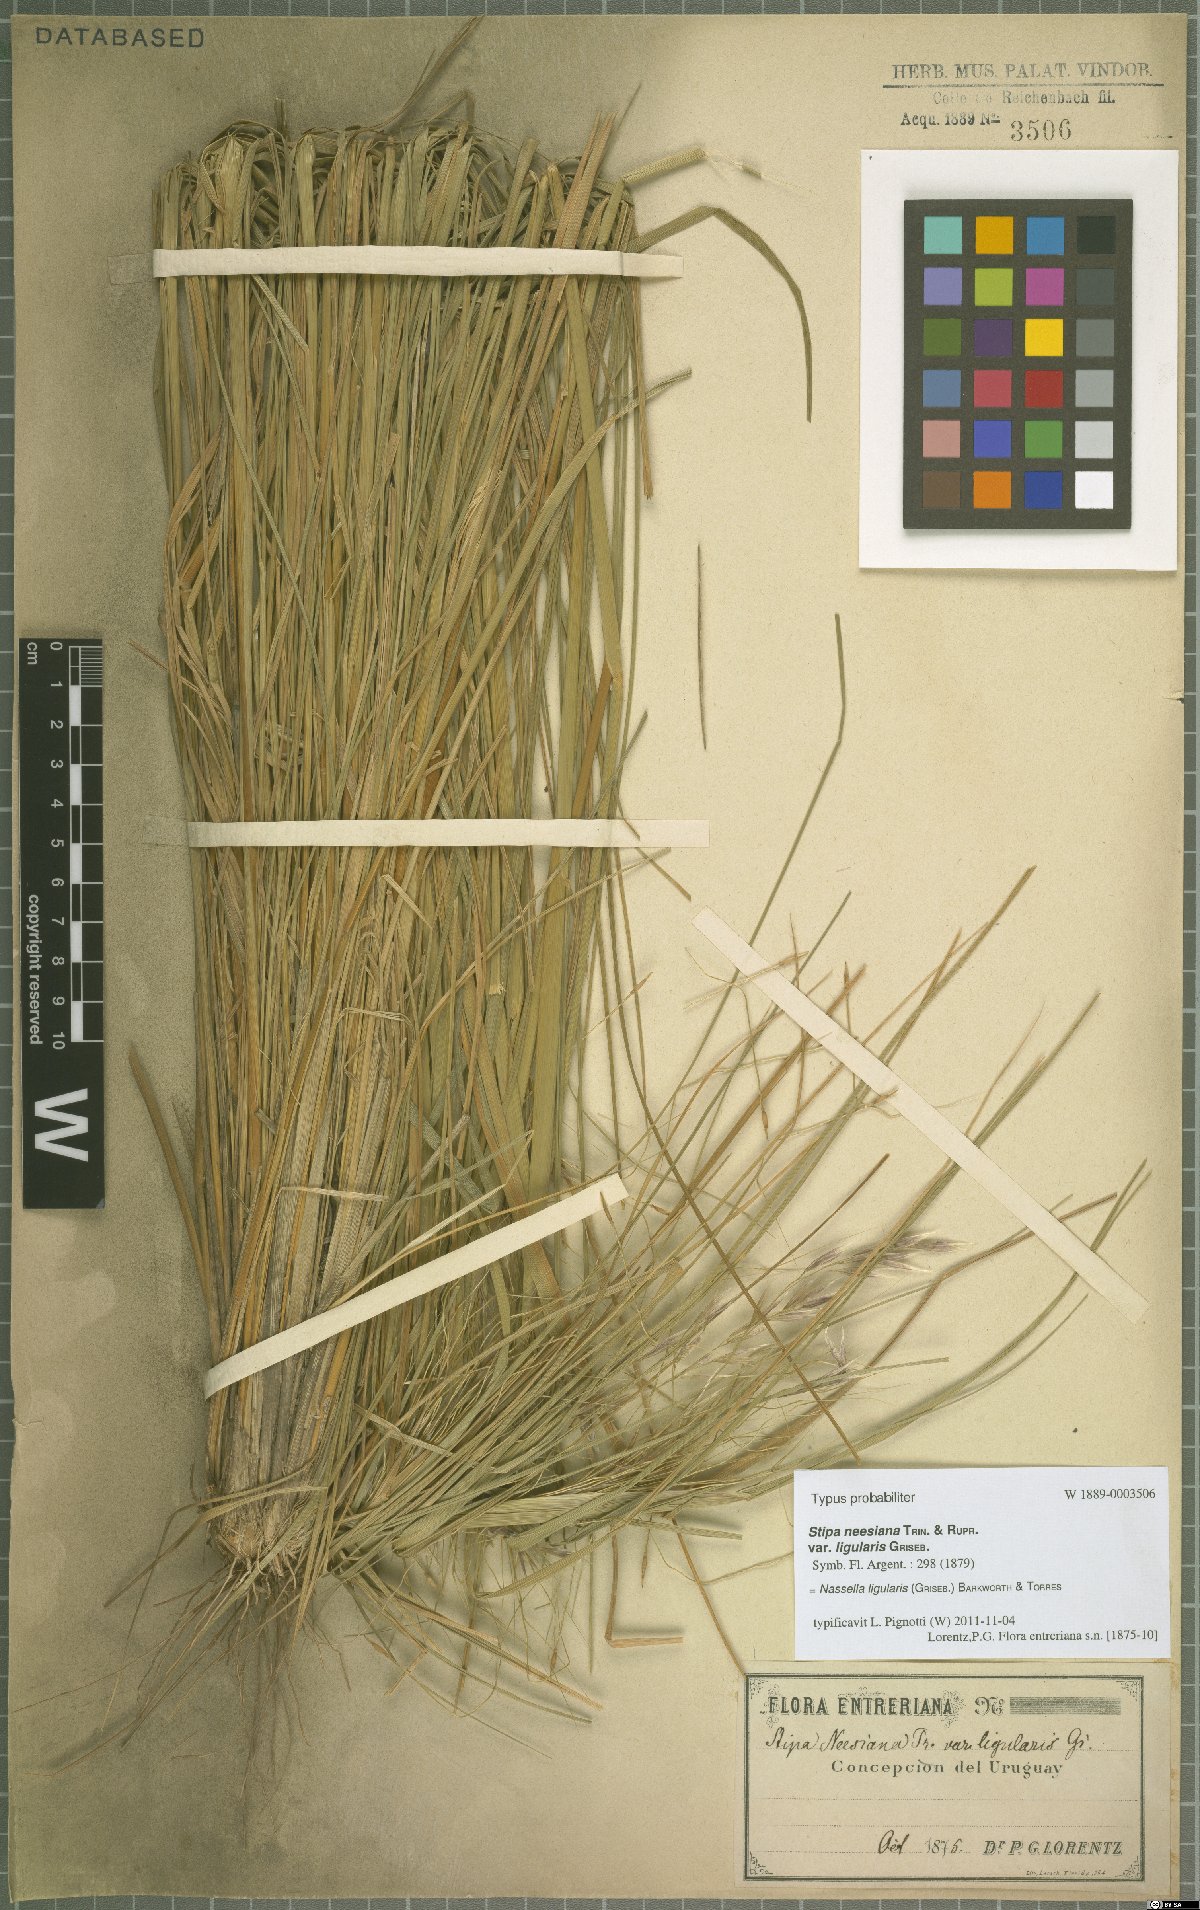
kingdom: Plantae
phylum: Tracheophyta
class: Liliopsida
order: Poales
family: Poaceae
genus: Nassella
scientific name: Nassella neesiana
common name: American needle-grass
